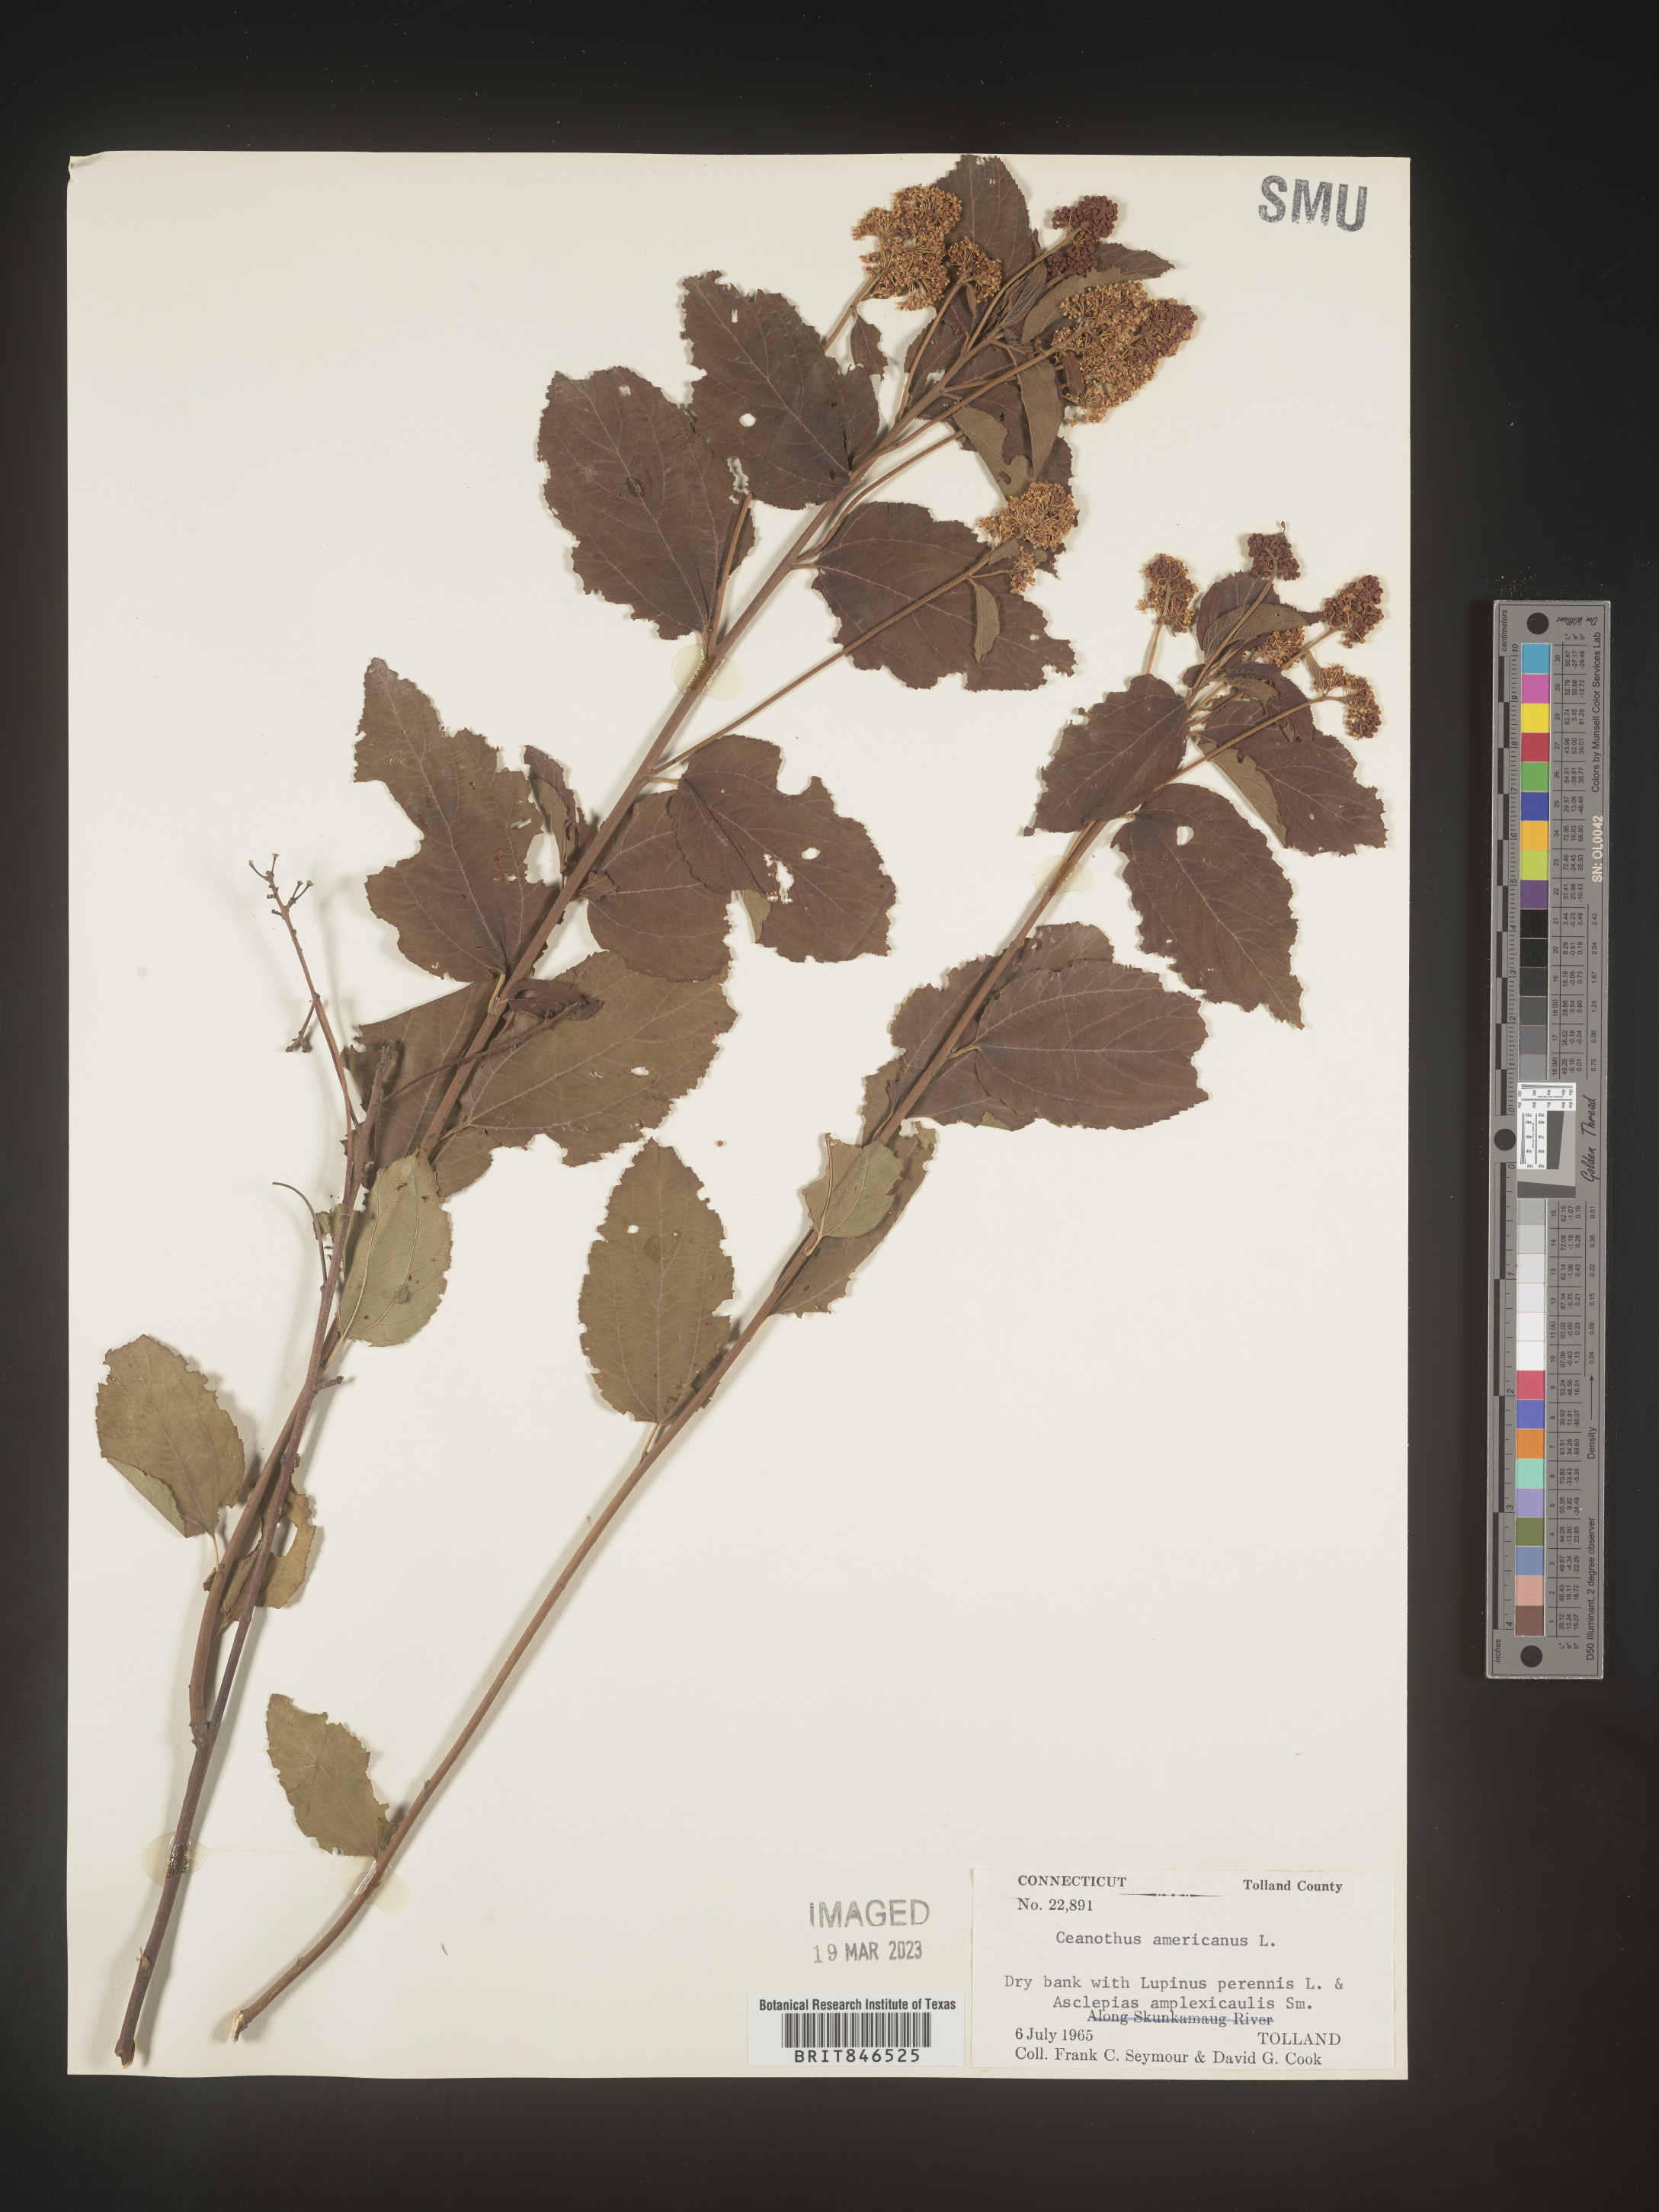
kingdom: Plantae
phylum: Tracheophyta
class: Magnoliopsida
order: Rosales
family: Rhamnaceae
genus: Ceanothus
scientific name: Ceanothus americanus
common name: Redroot
